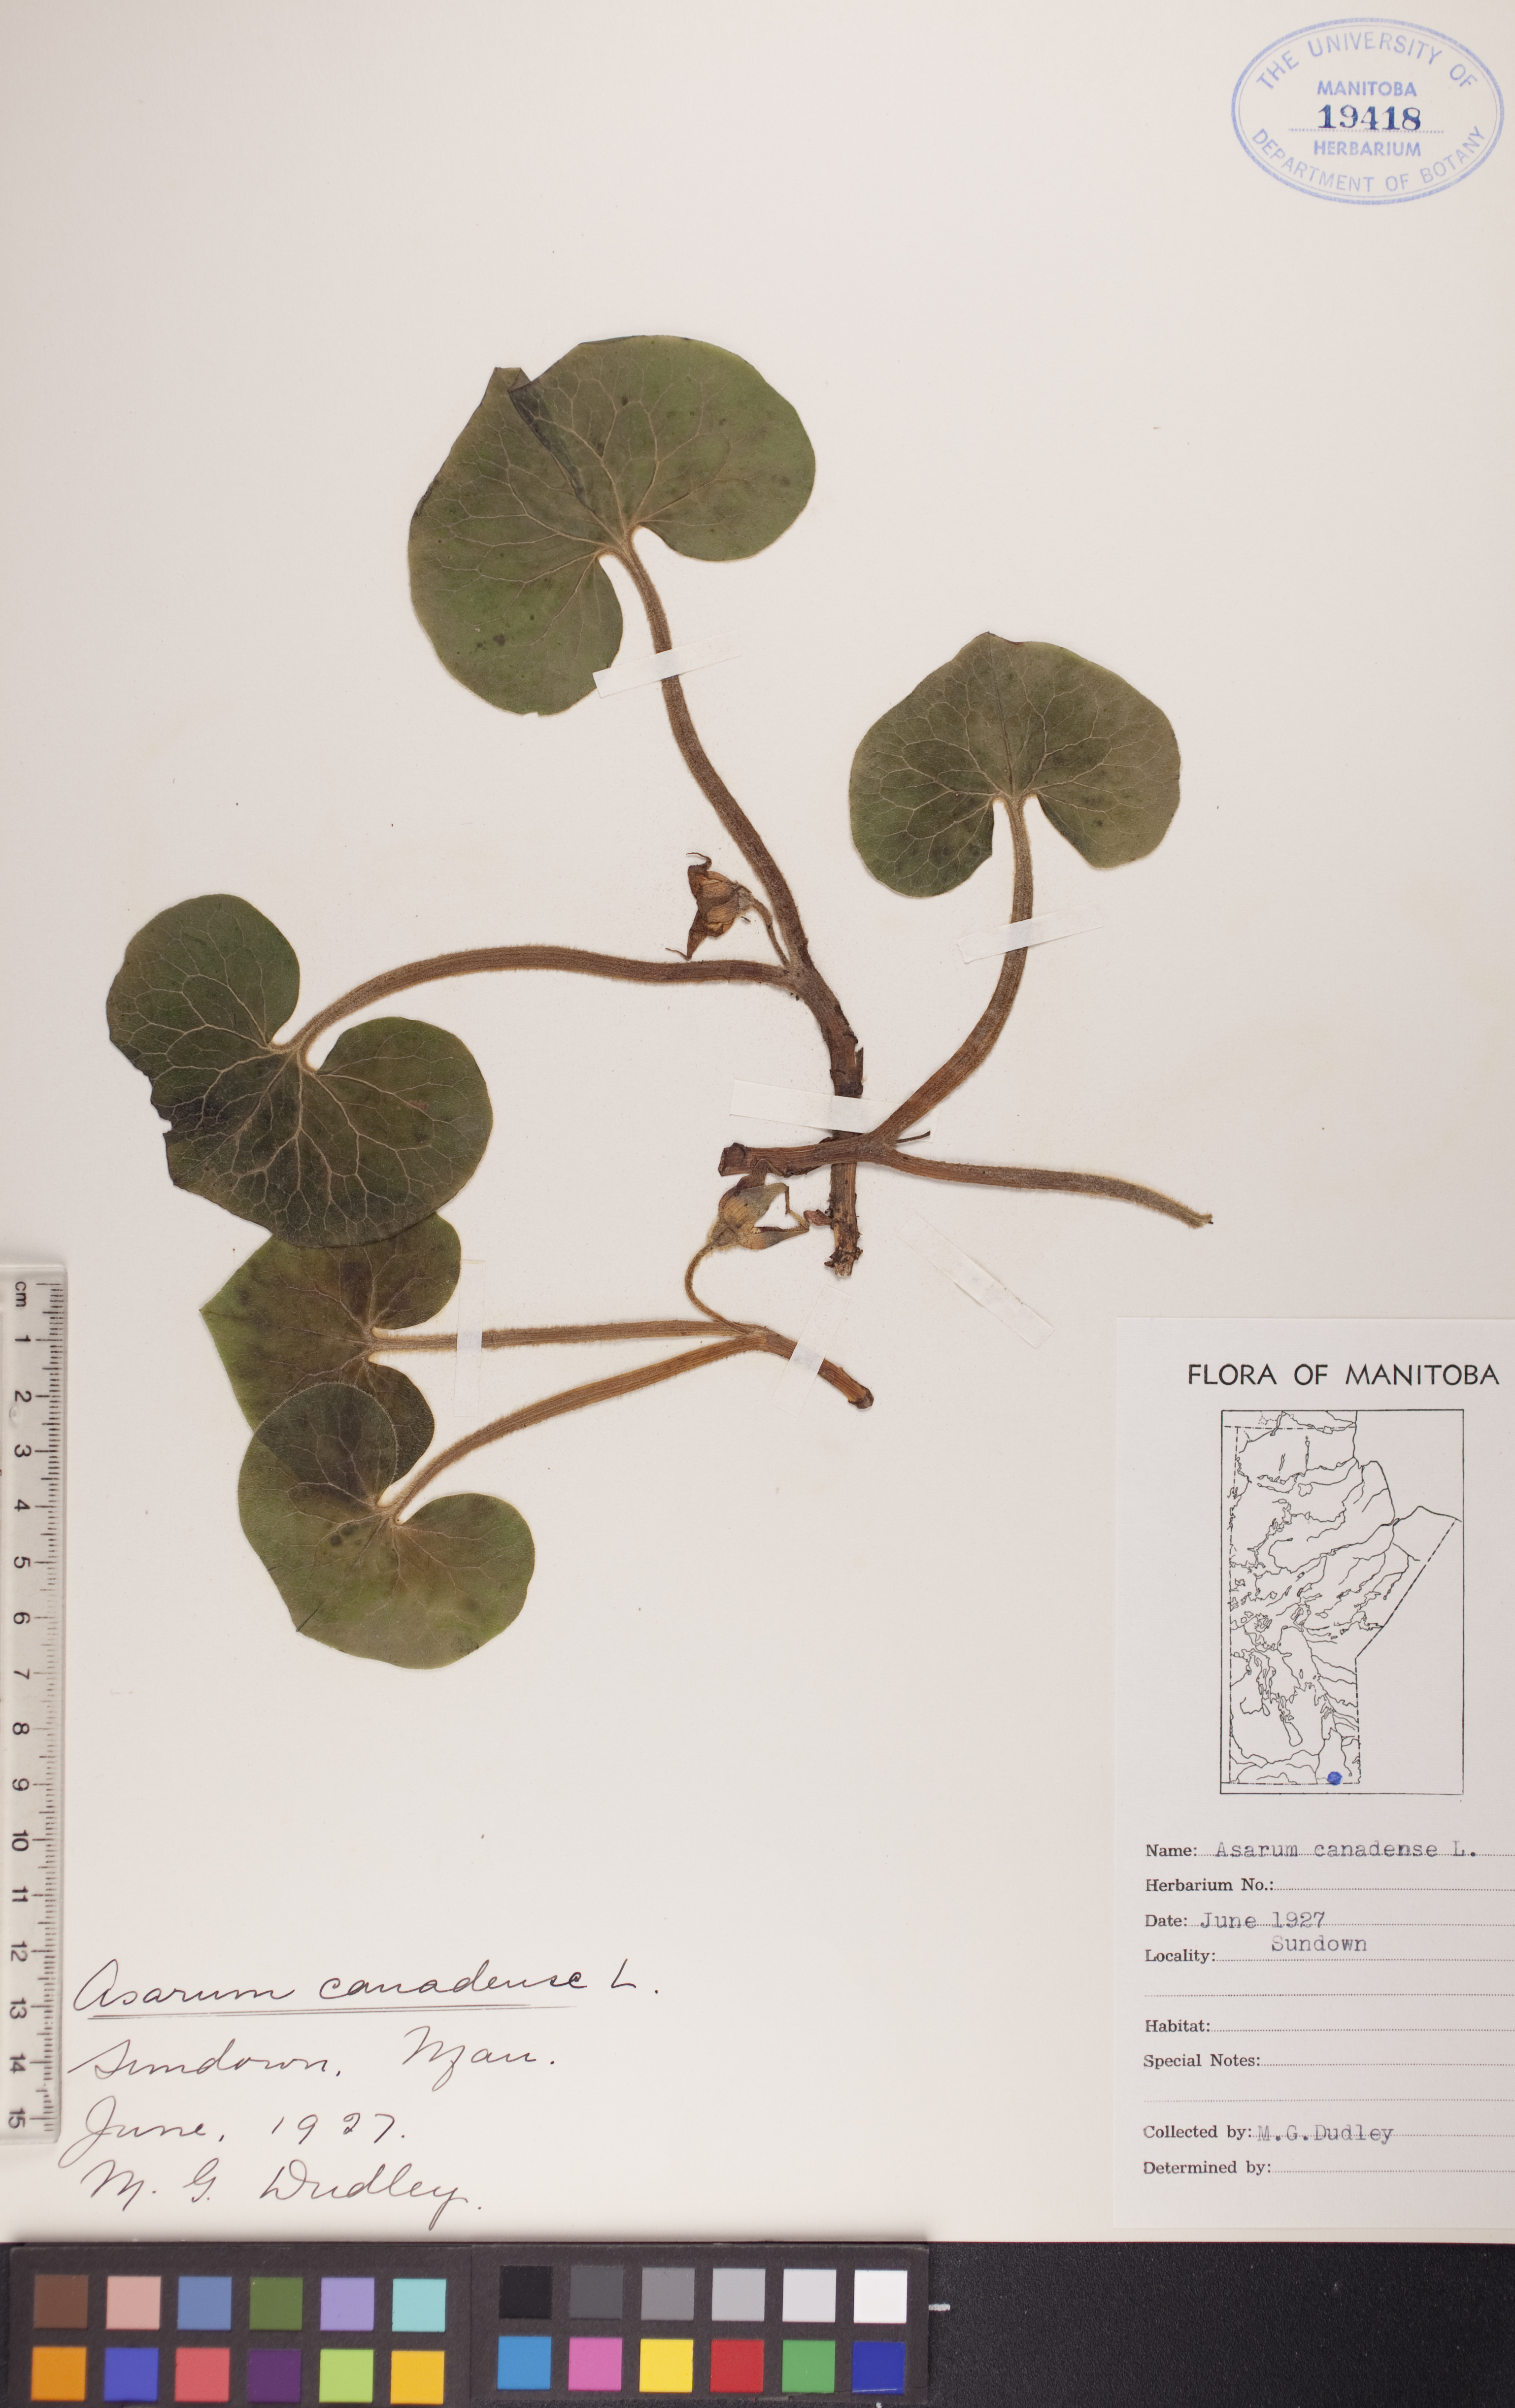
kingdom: Plantae
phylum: Tracheophyta
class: Magnoliopsida
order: Piperales
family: Aristolochiaceae
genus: Asarum
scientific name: Asarum canadense
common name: Wild ginger
